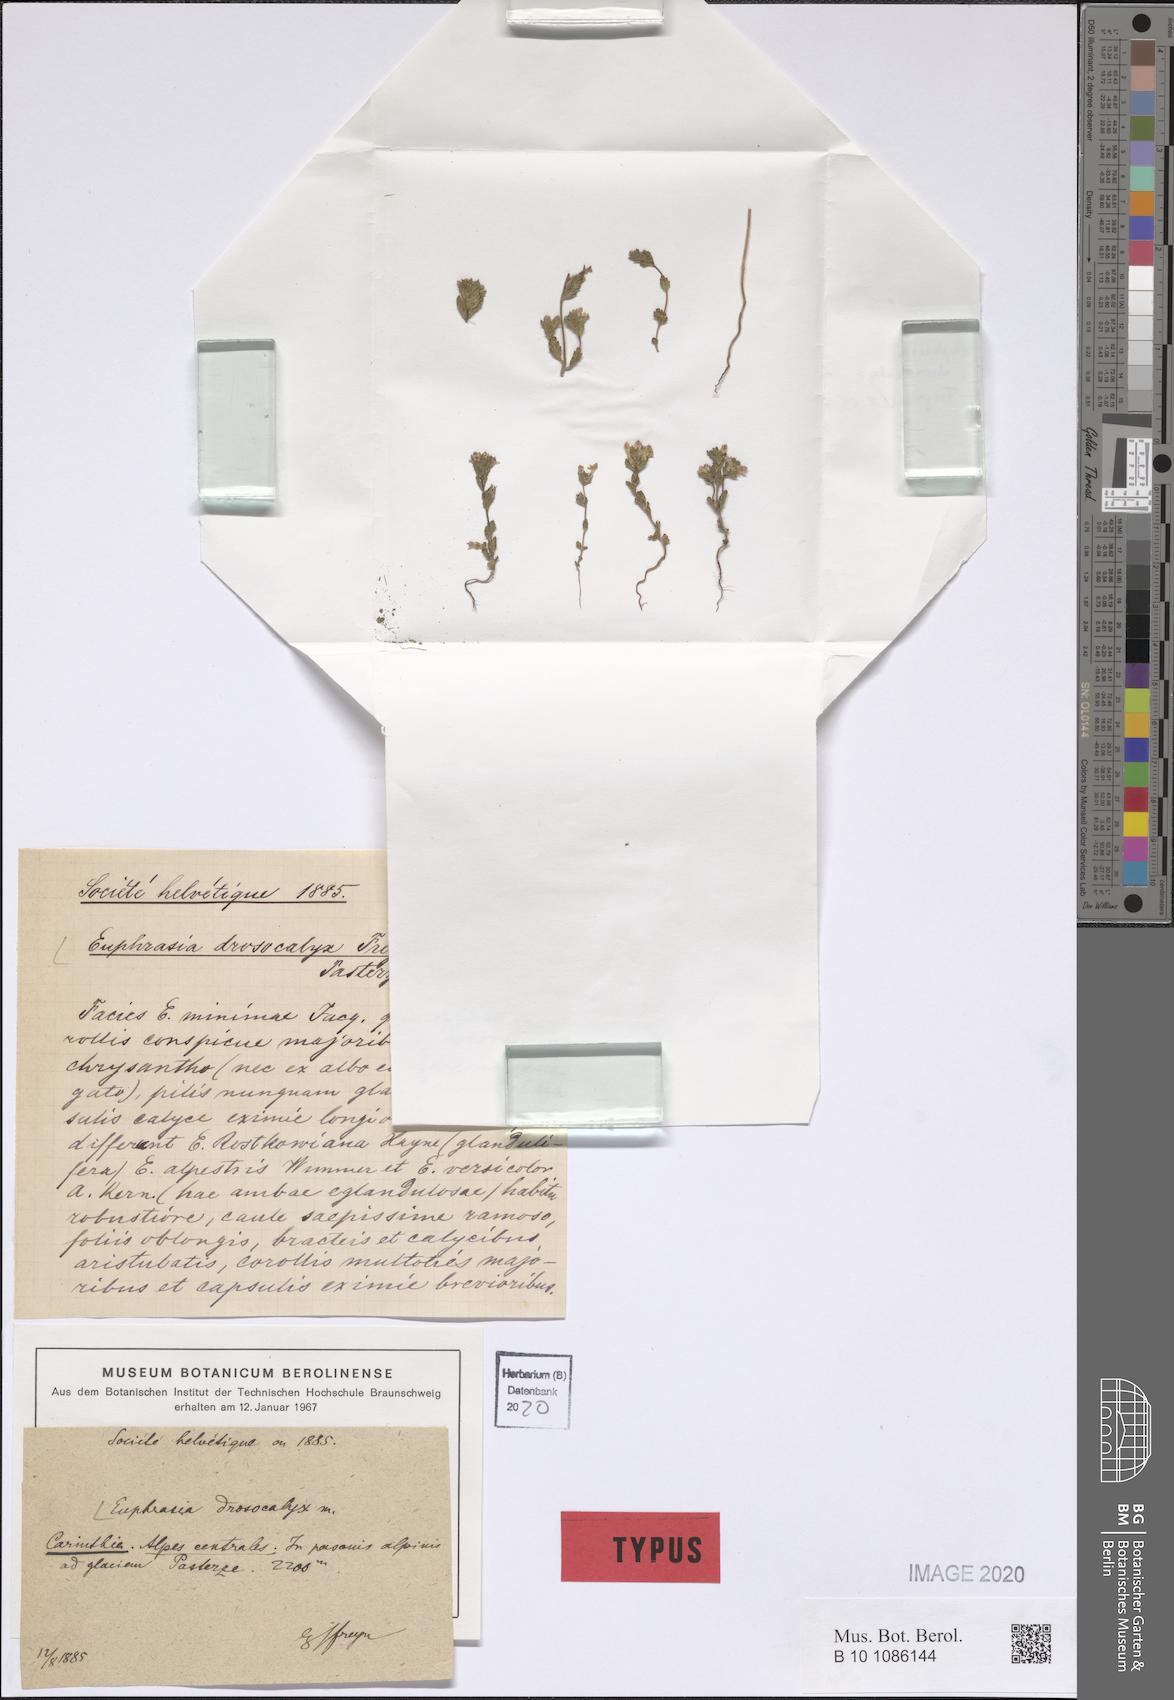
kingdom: Plantae
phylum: Tracheophyta
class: Magnoliopsida
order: Lamiales
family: Orobanchaceae
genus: Euphrasia
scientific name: Euphrasia drosocalyx
